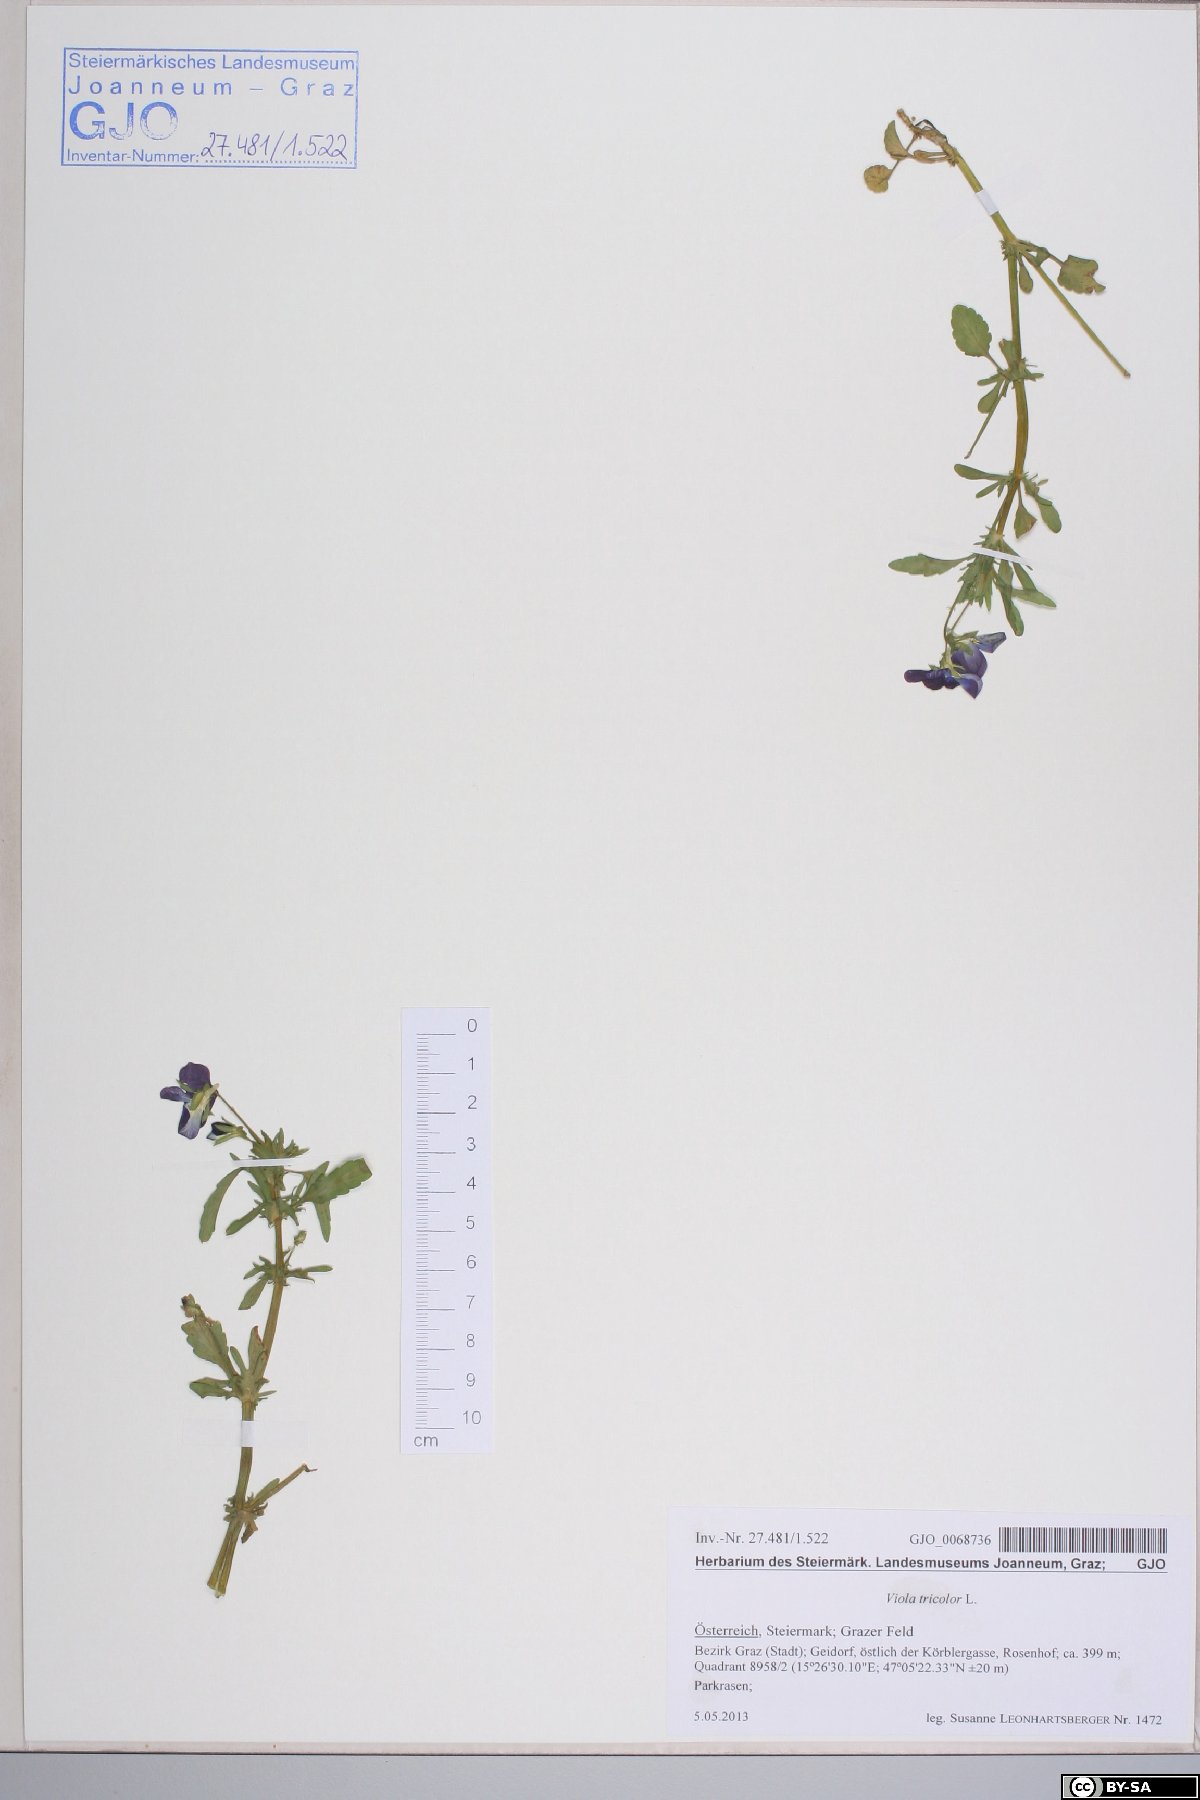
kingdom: Plantae
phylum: Tracheophyta
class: Magnoliopsida
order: Malpighiales
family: Violaceae
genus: Viola
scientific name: Viola tricolor
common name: Pansy
